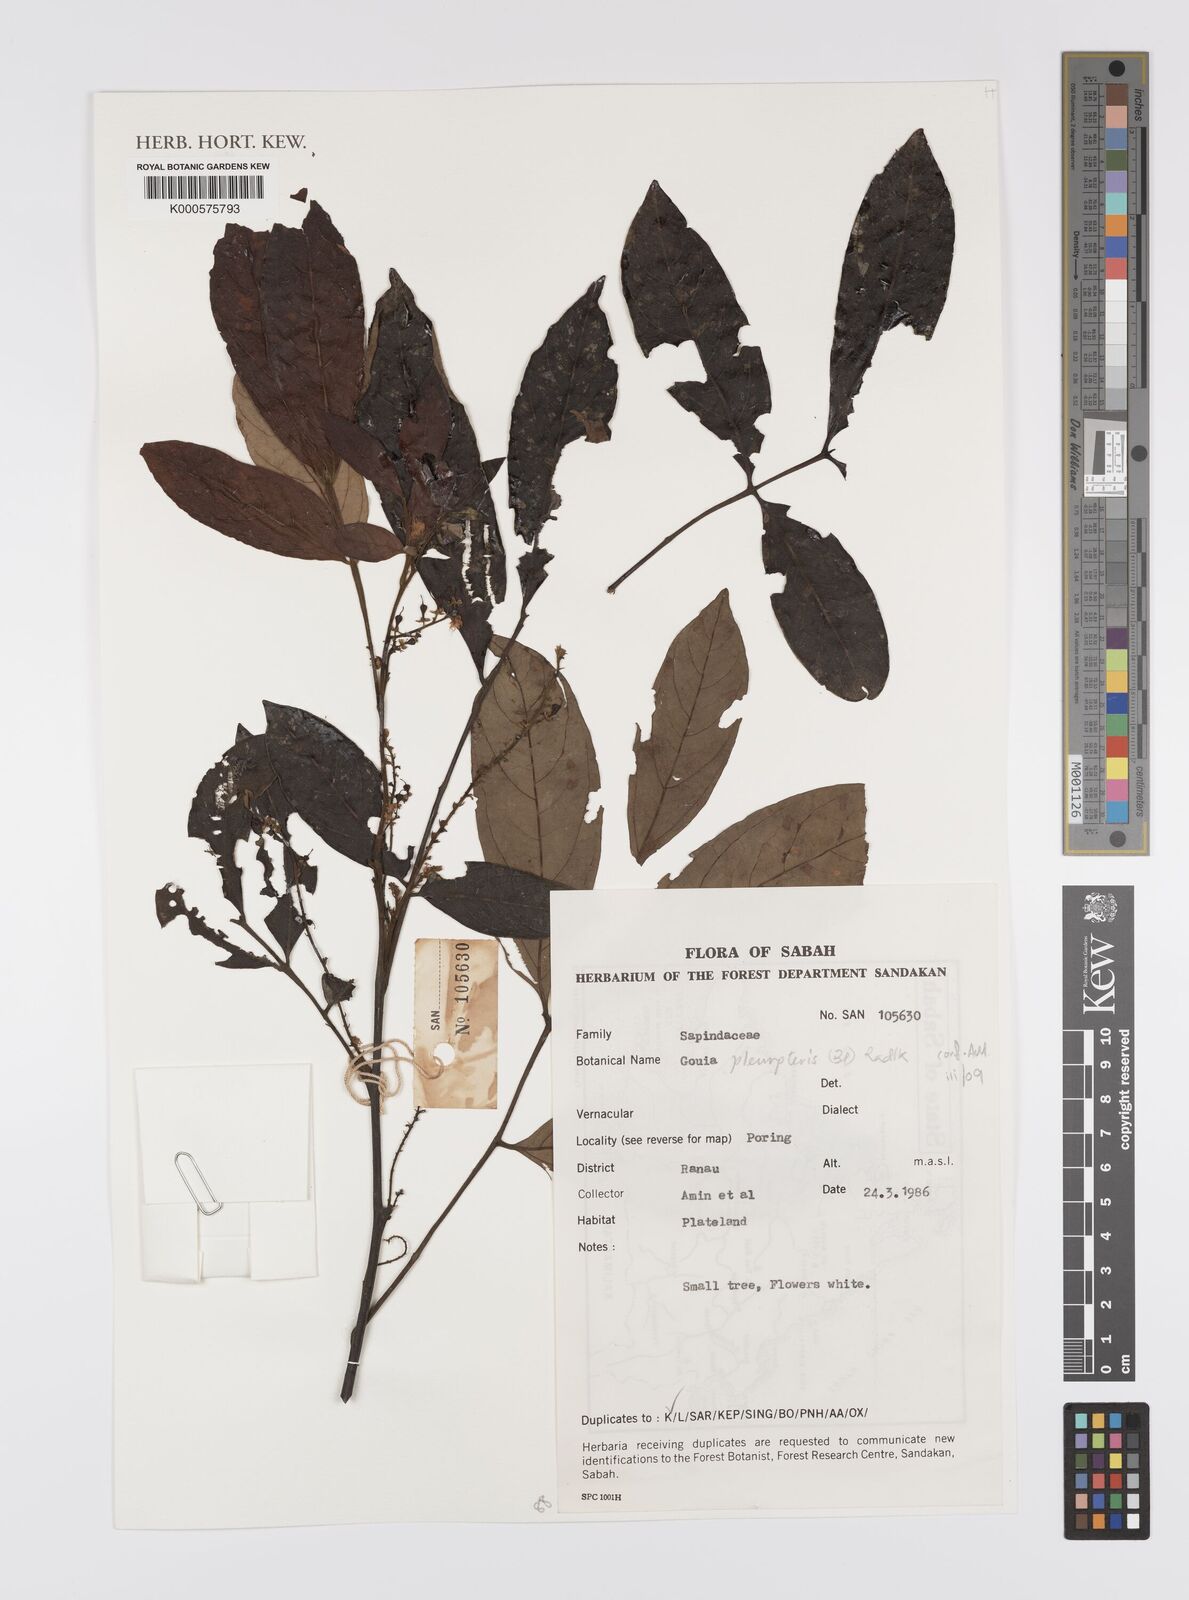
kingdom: Plantae
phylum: Tracheophyta
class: Magnoliopsida
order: Sapindales
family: Sapindaceae
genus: Guioa
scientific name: Guioa pleuropteris
